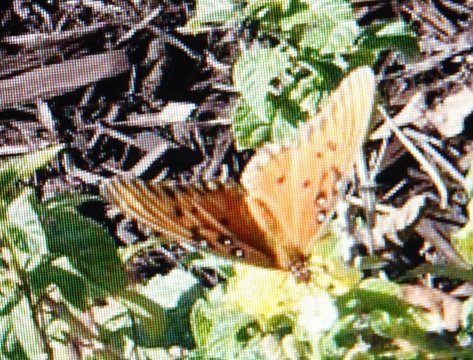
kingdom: Animalia
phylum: Arthropoda
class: Insecta
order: Lepidoptera
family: Nymphalidae
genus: Dione
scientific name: Dione vanillae
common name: Gulf Fritillary
